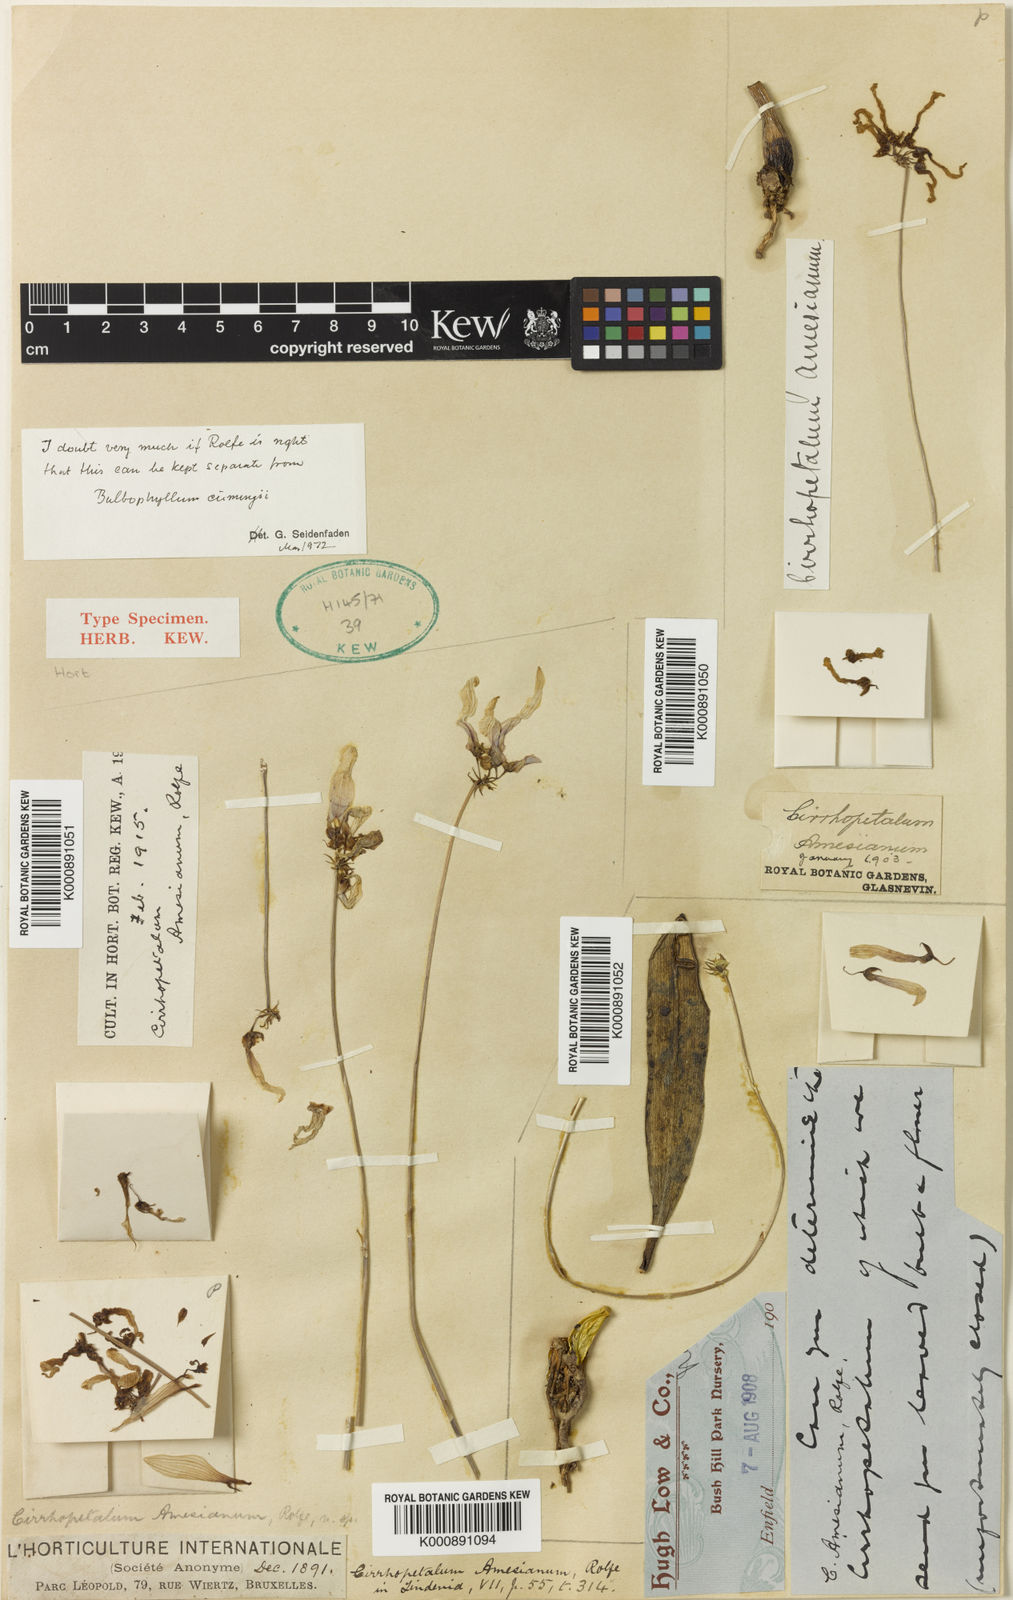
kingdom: Plantae
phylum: Tracheophyta
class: Liliopsida
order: Asparagales
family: Orchidaceae
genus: Bulbophyllum
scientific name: Bulbophyllum cumingii
